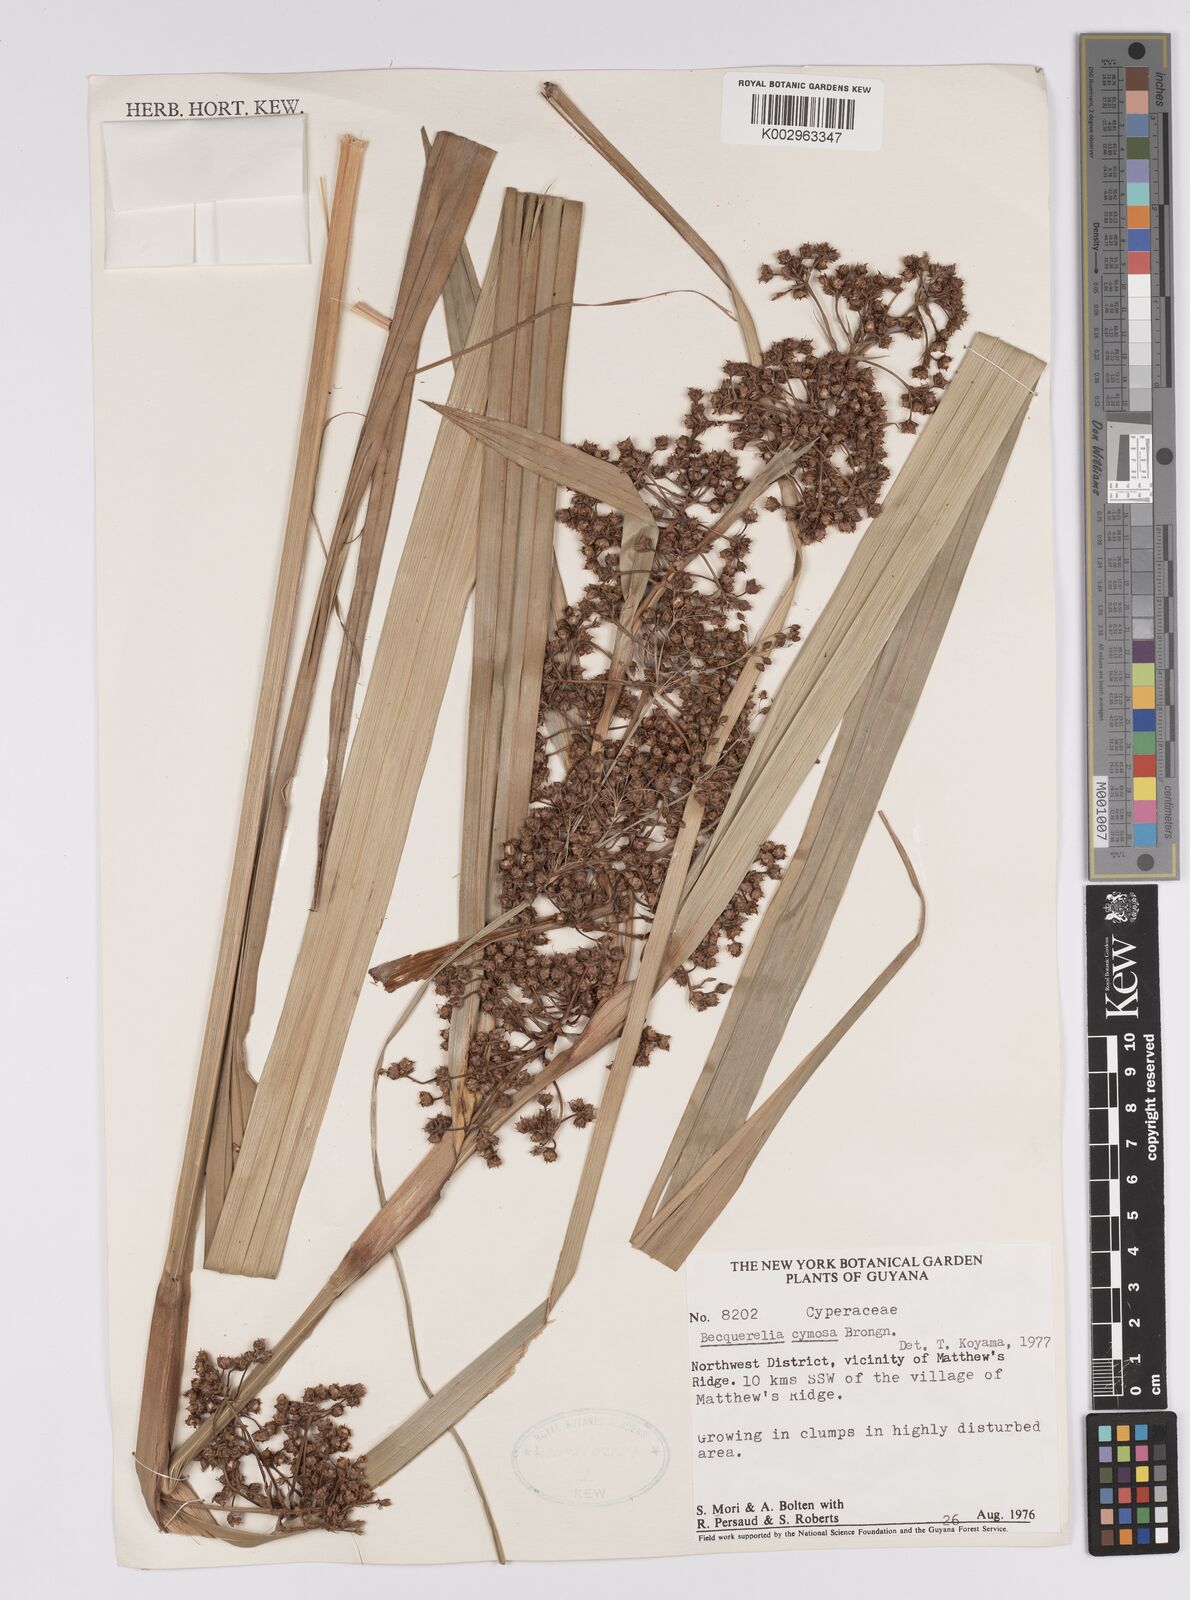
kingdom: Plantae
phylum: Tracheophyta
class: Liliopsida
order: Poales
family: Cyperaceae
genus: Becquerelia
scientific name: Becquerelia cymosa
